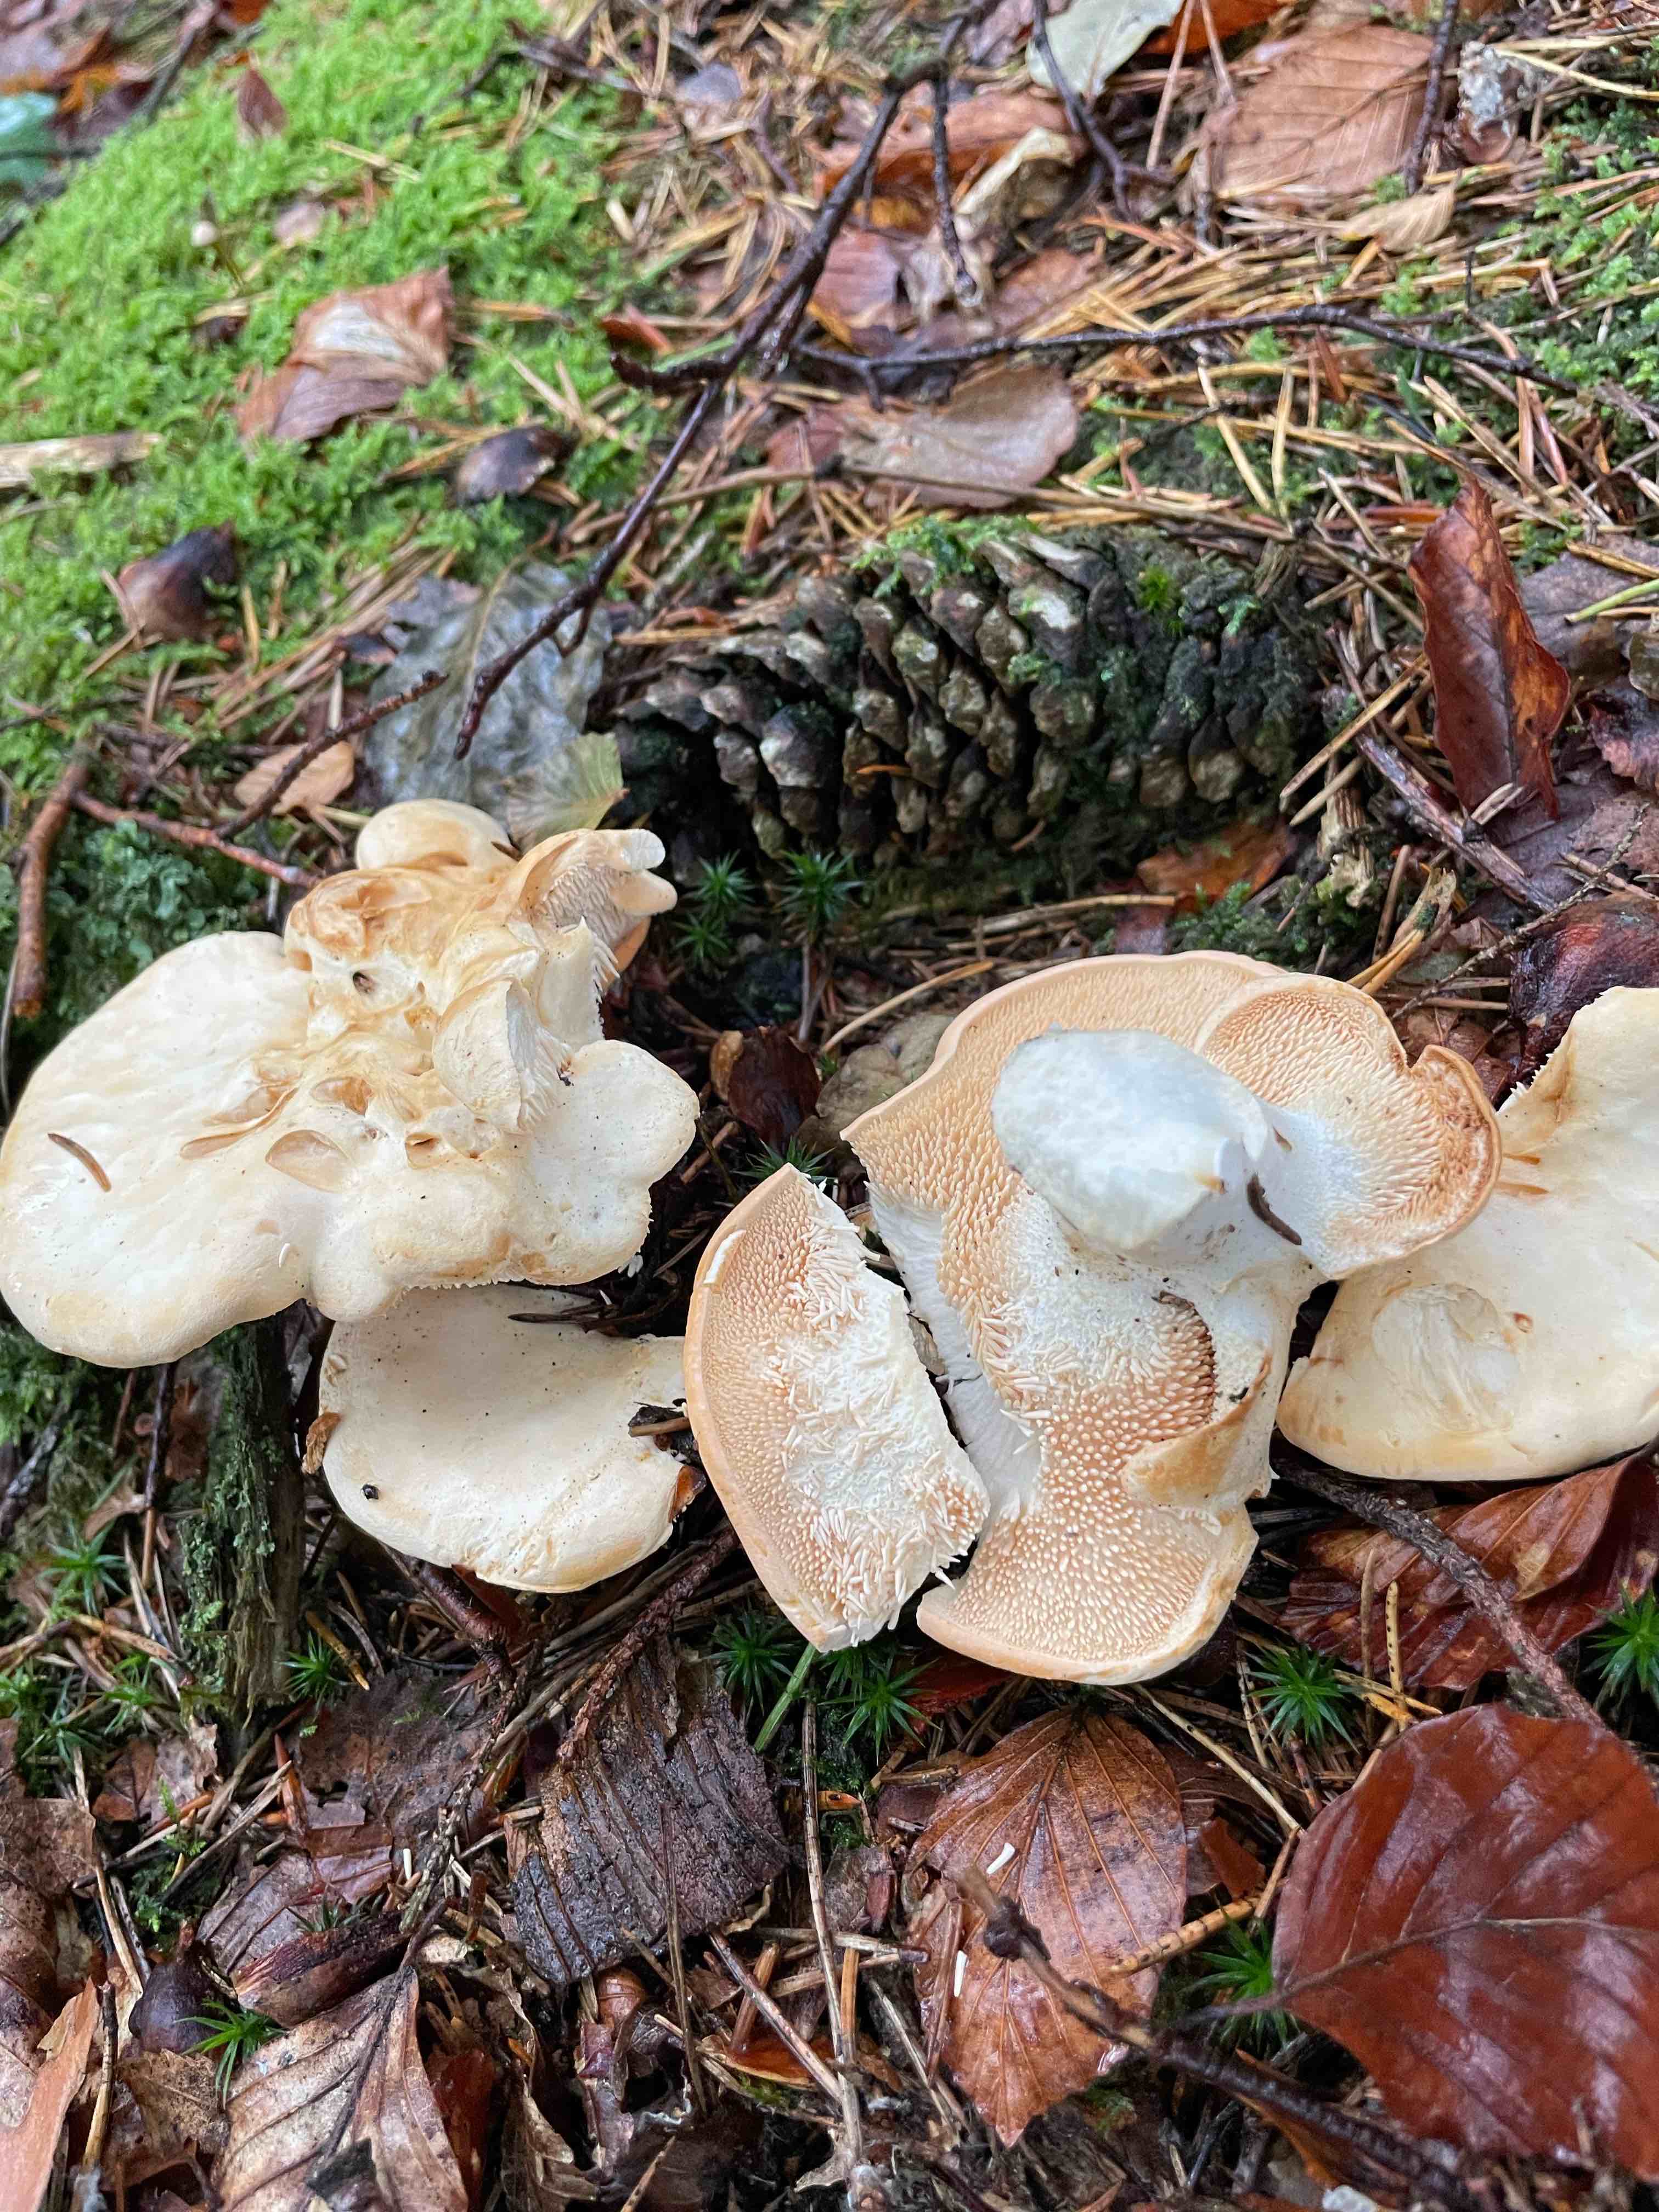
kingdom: Fungi
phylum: Basidiomycota
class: Agaricomycetes
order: Cantharellales
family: Hydnaceae
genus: Hydnum
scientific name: Hydnum repandum
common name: almindelig pigsvamp
